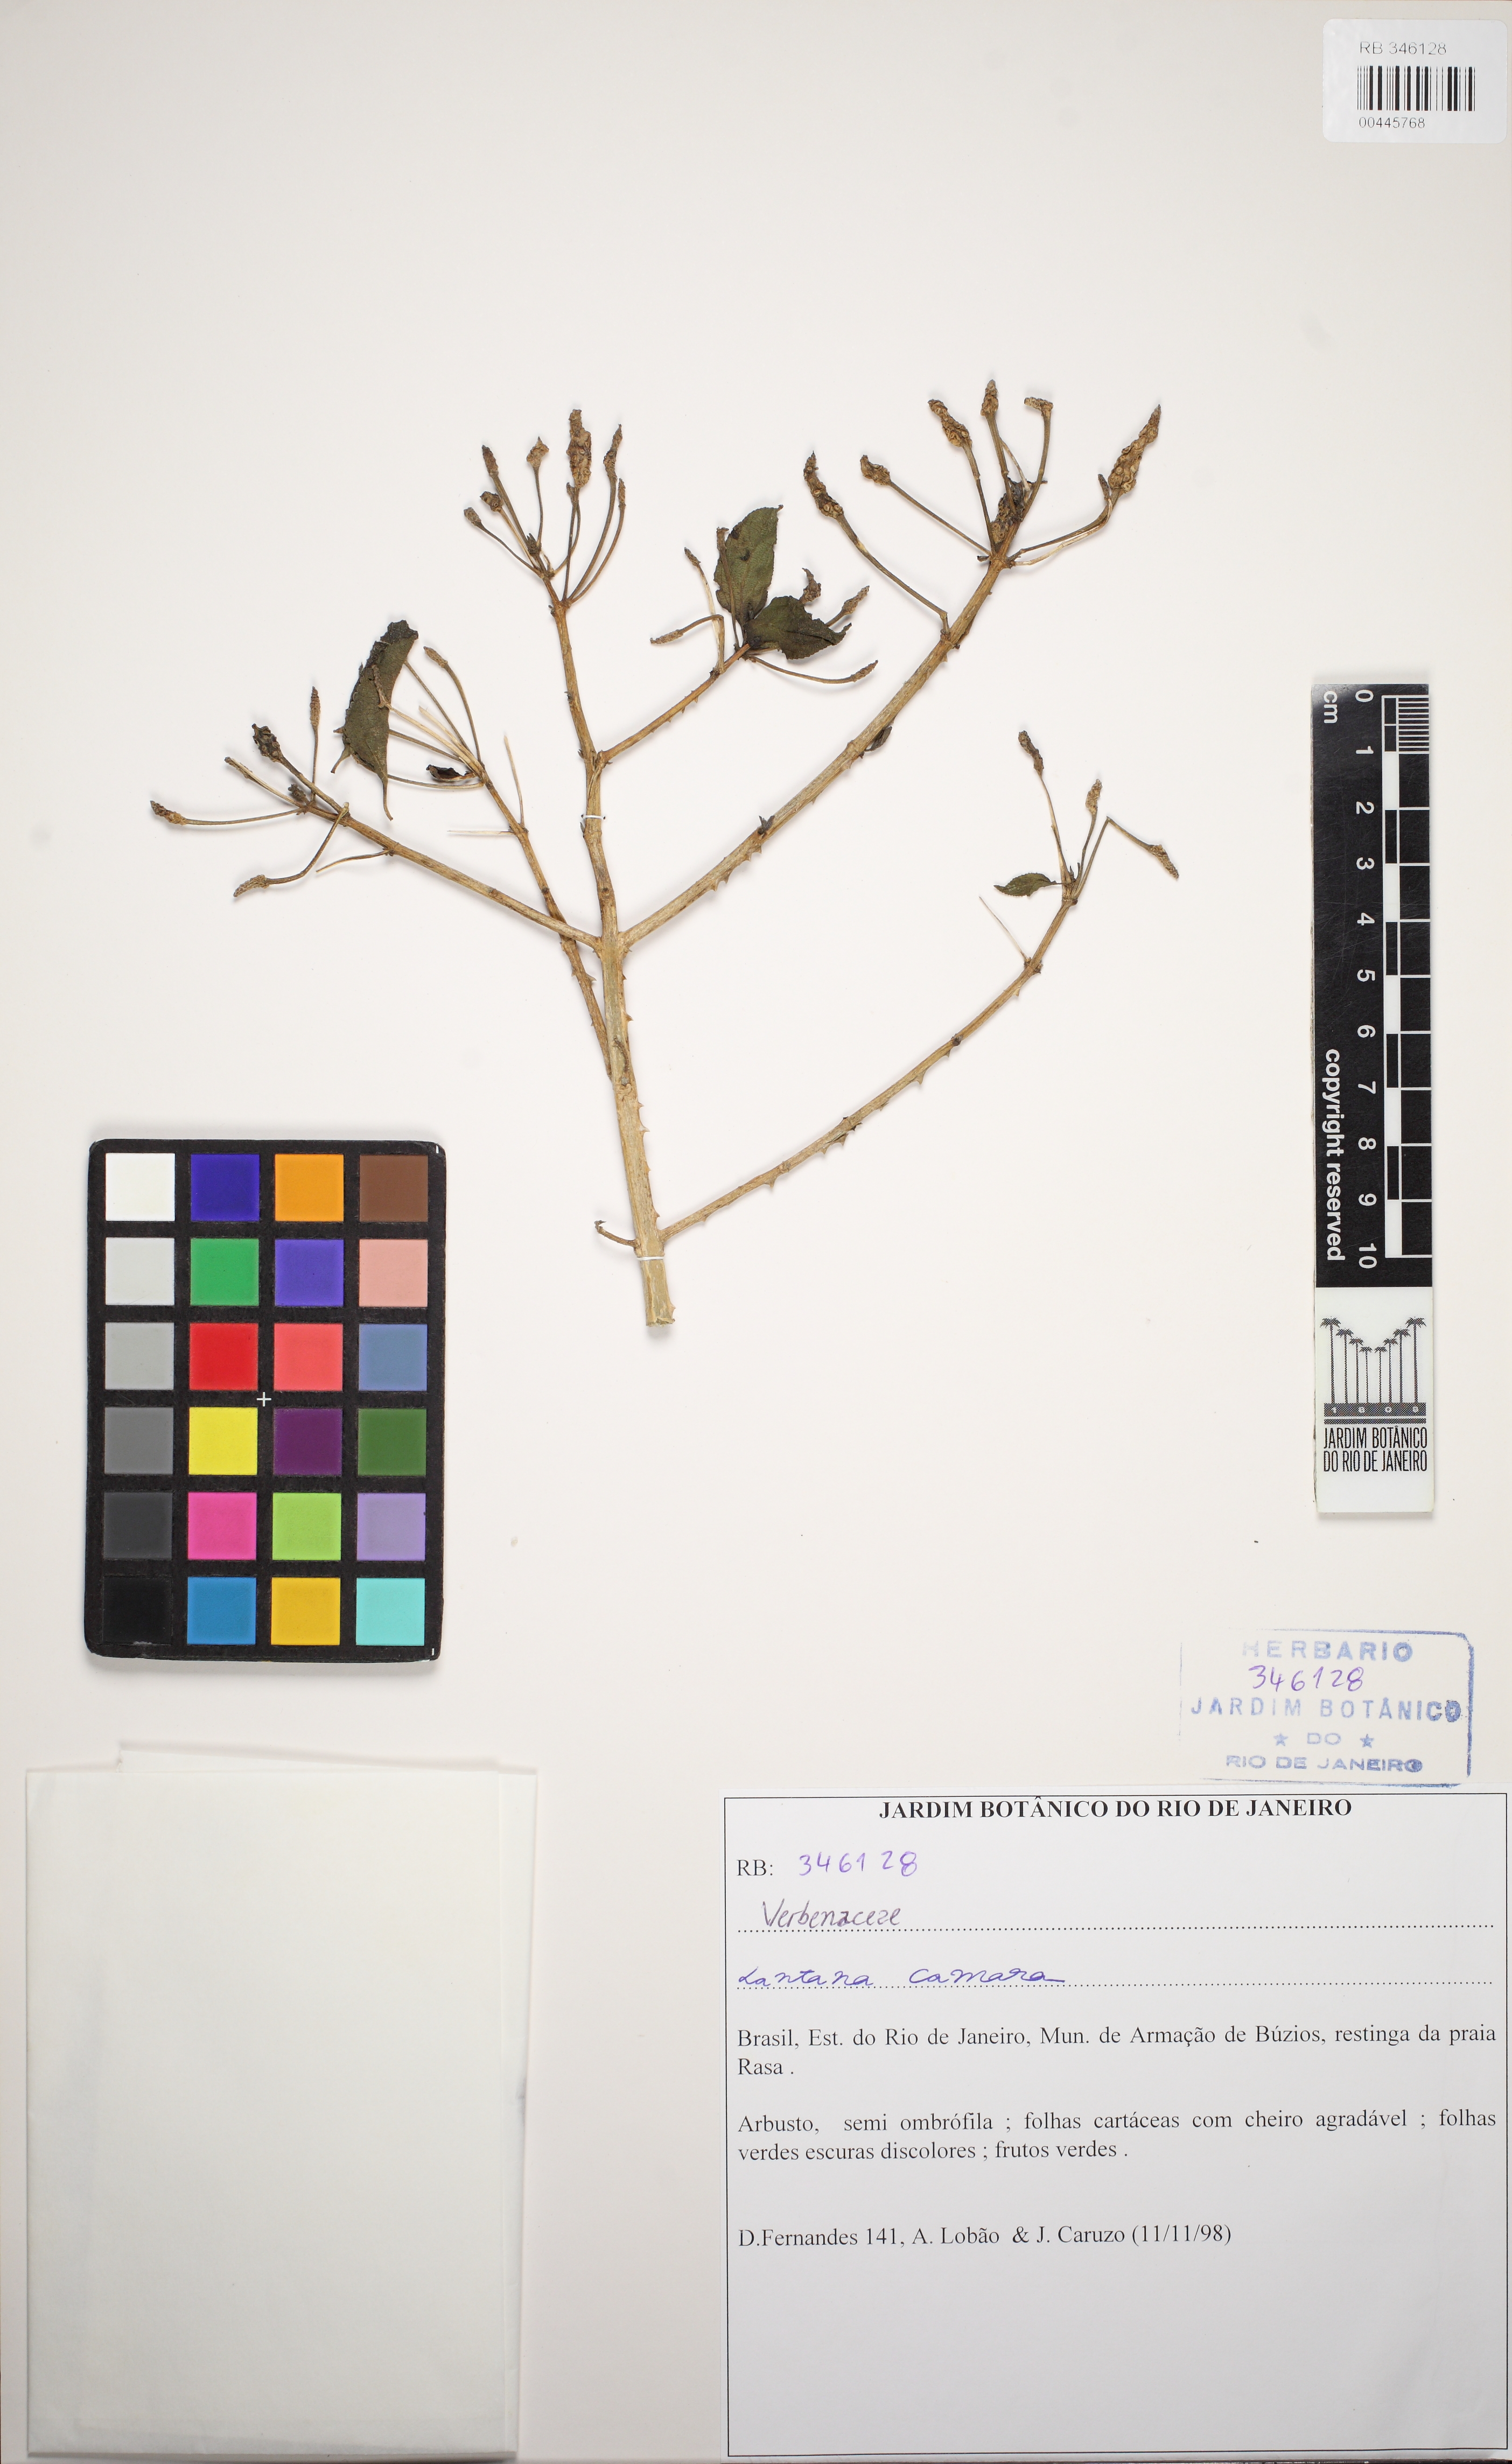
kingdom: Plantae
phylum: Tracheophyta
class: Magnoliopsida
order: Lamiales
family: Verbenaceae
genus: Lantana
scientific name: Lantana camara
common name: Lantana
